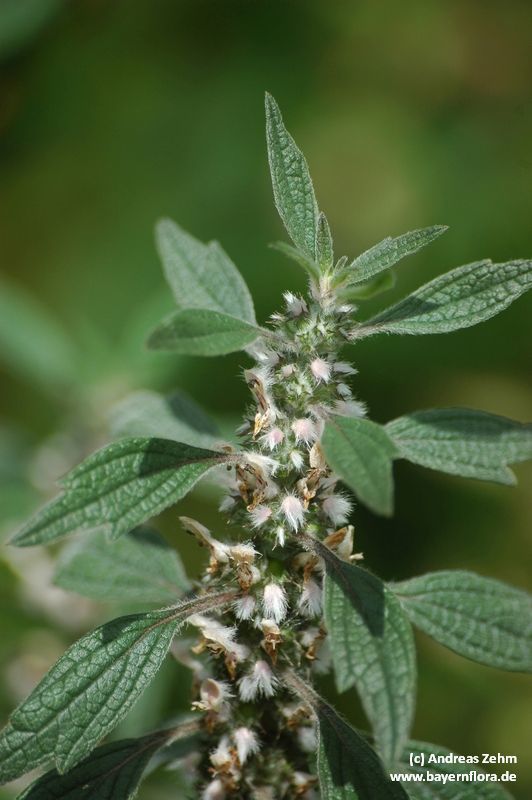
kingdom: Plantae
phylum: Tracheophyta
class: Magnoliopsida
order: Lamiales
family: Lamiaceae
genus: Leonurus
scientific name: Leonurus cardiaca
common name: Motherwort
